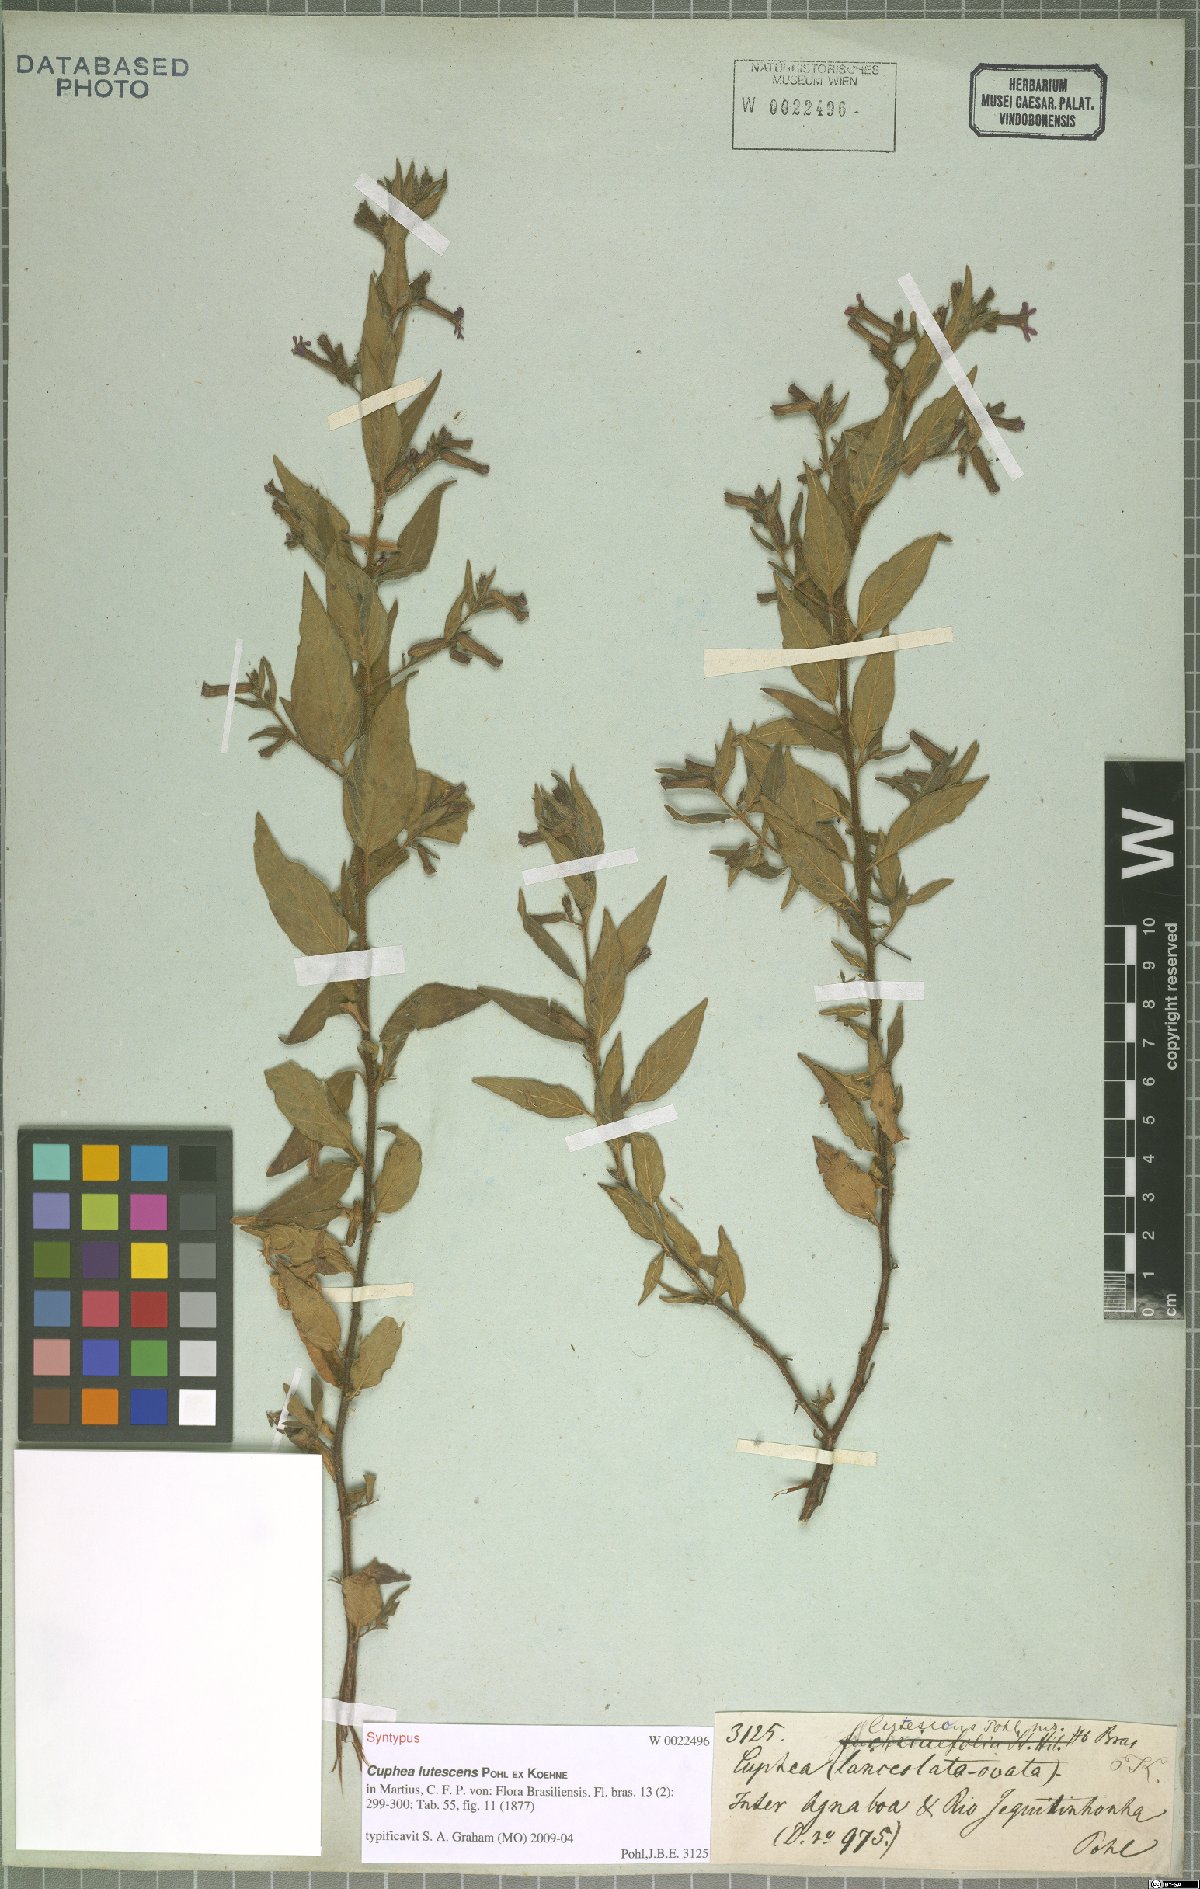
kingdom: Plantae
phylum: Tracheophyta
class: Magnoliopsida
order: Myrtales
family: Lythraceae
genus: Cuphea
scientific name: Cuphea lutescens
